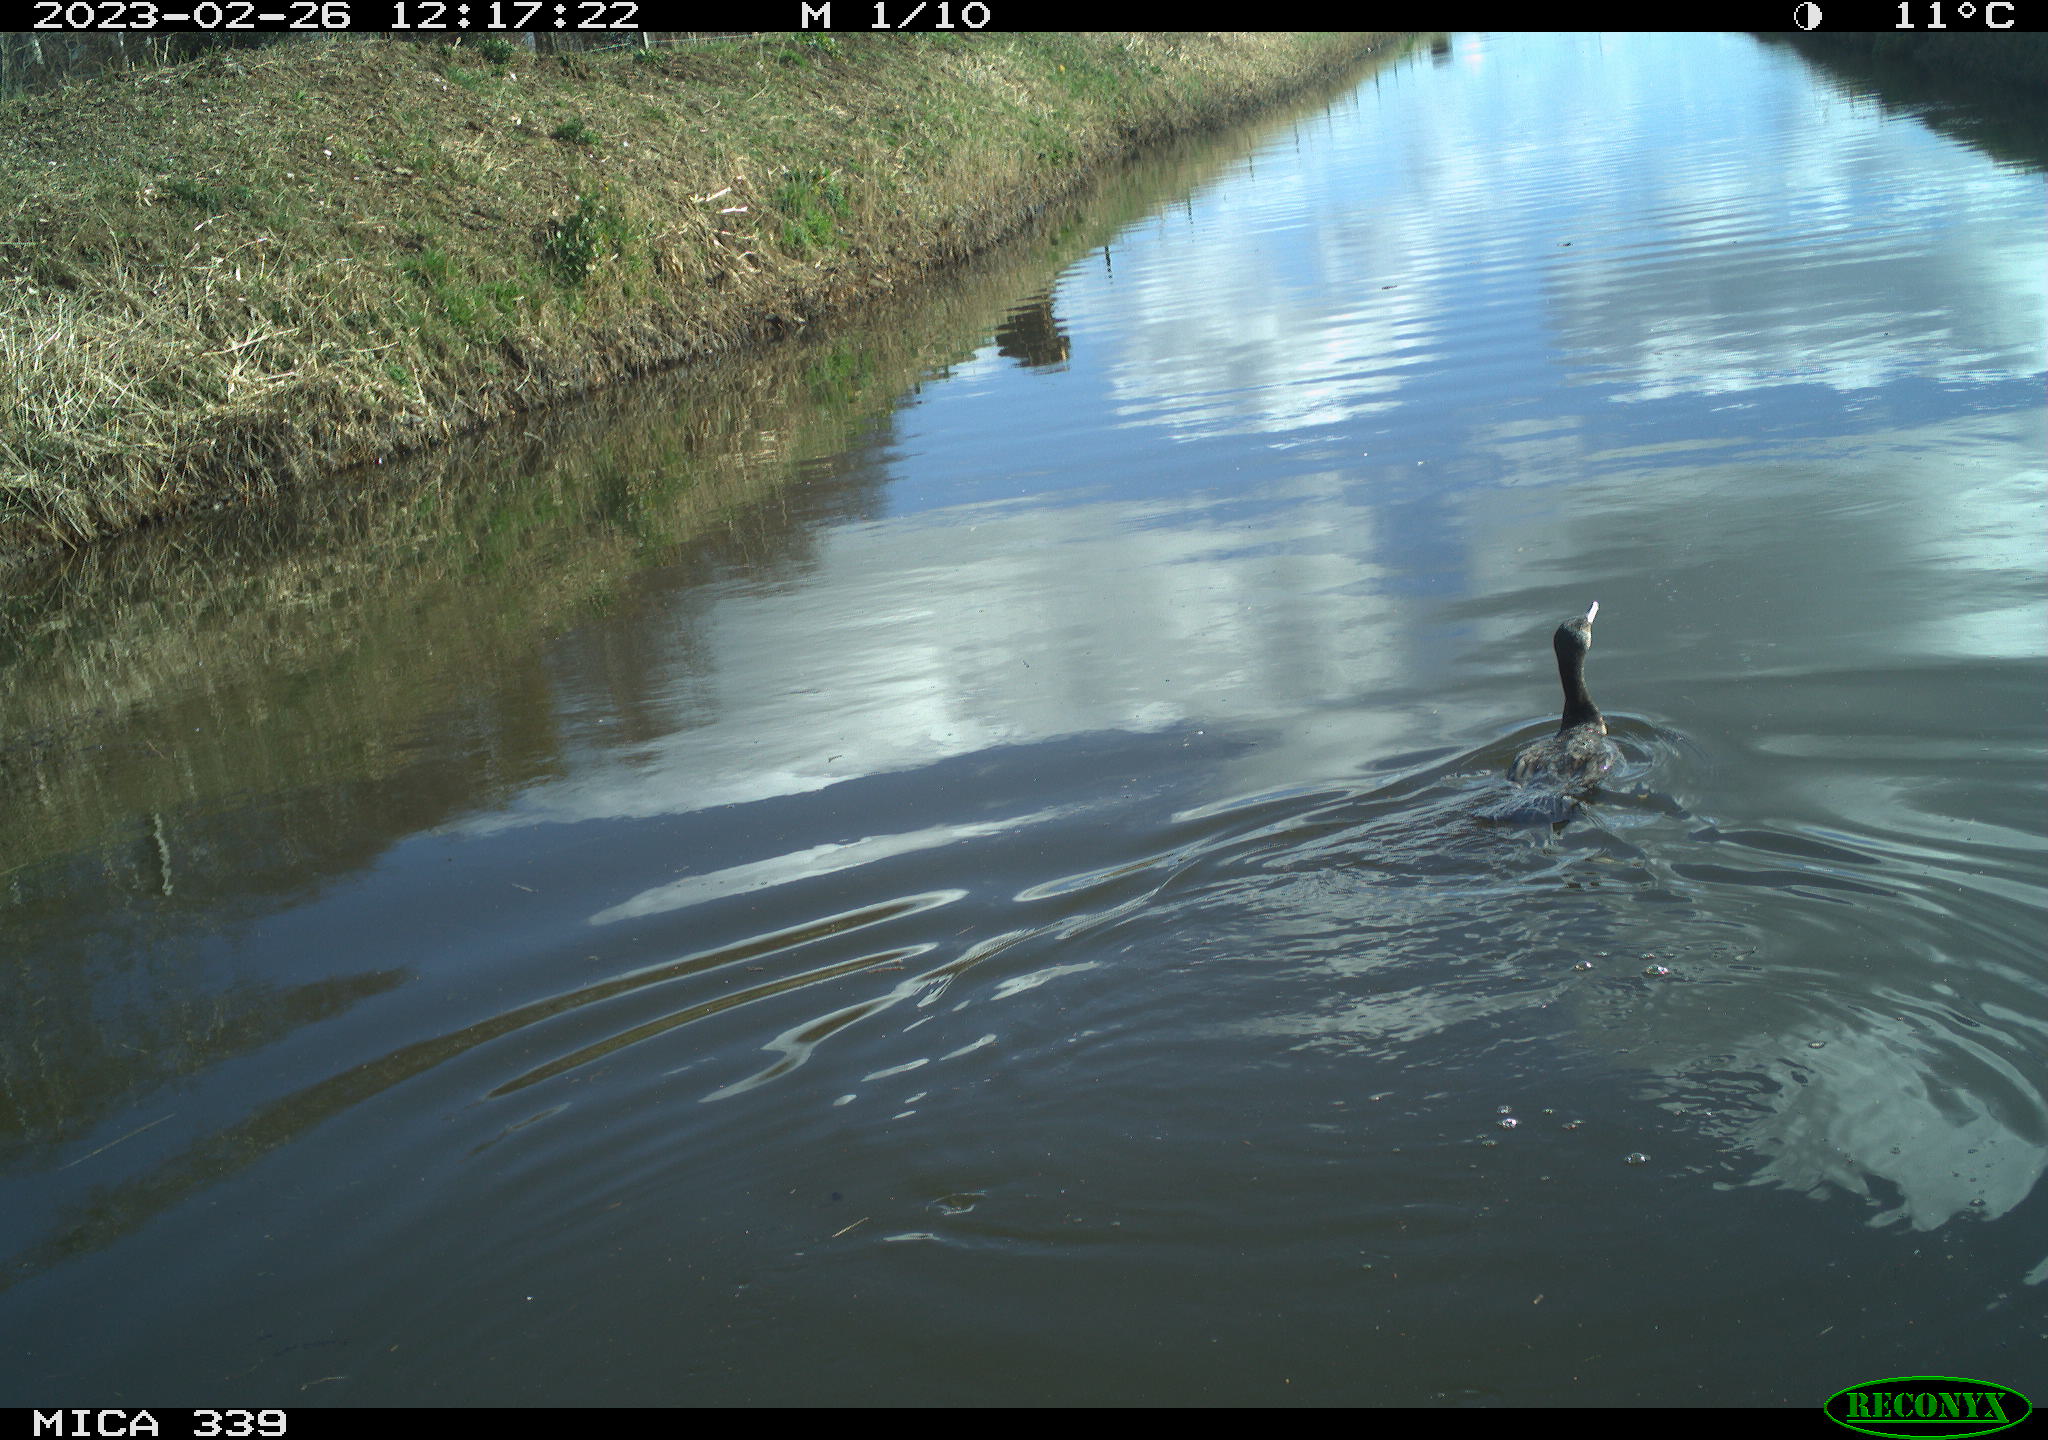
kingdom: Animalia
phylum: Chordata
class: Aves
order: Suliformes
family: Phalacrocoracidae
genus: Phalacrocorax
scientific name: Phalacrocorax carbo
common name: Great cormorant
